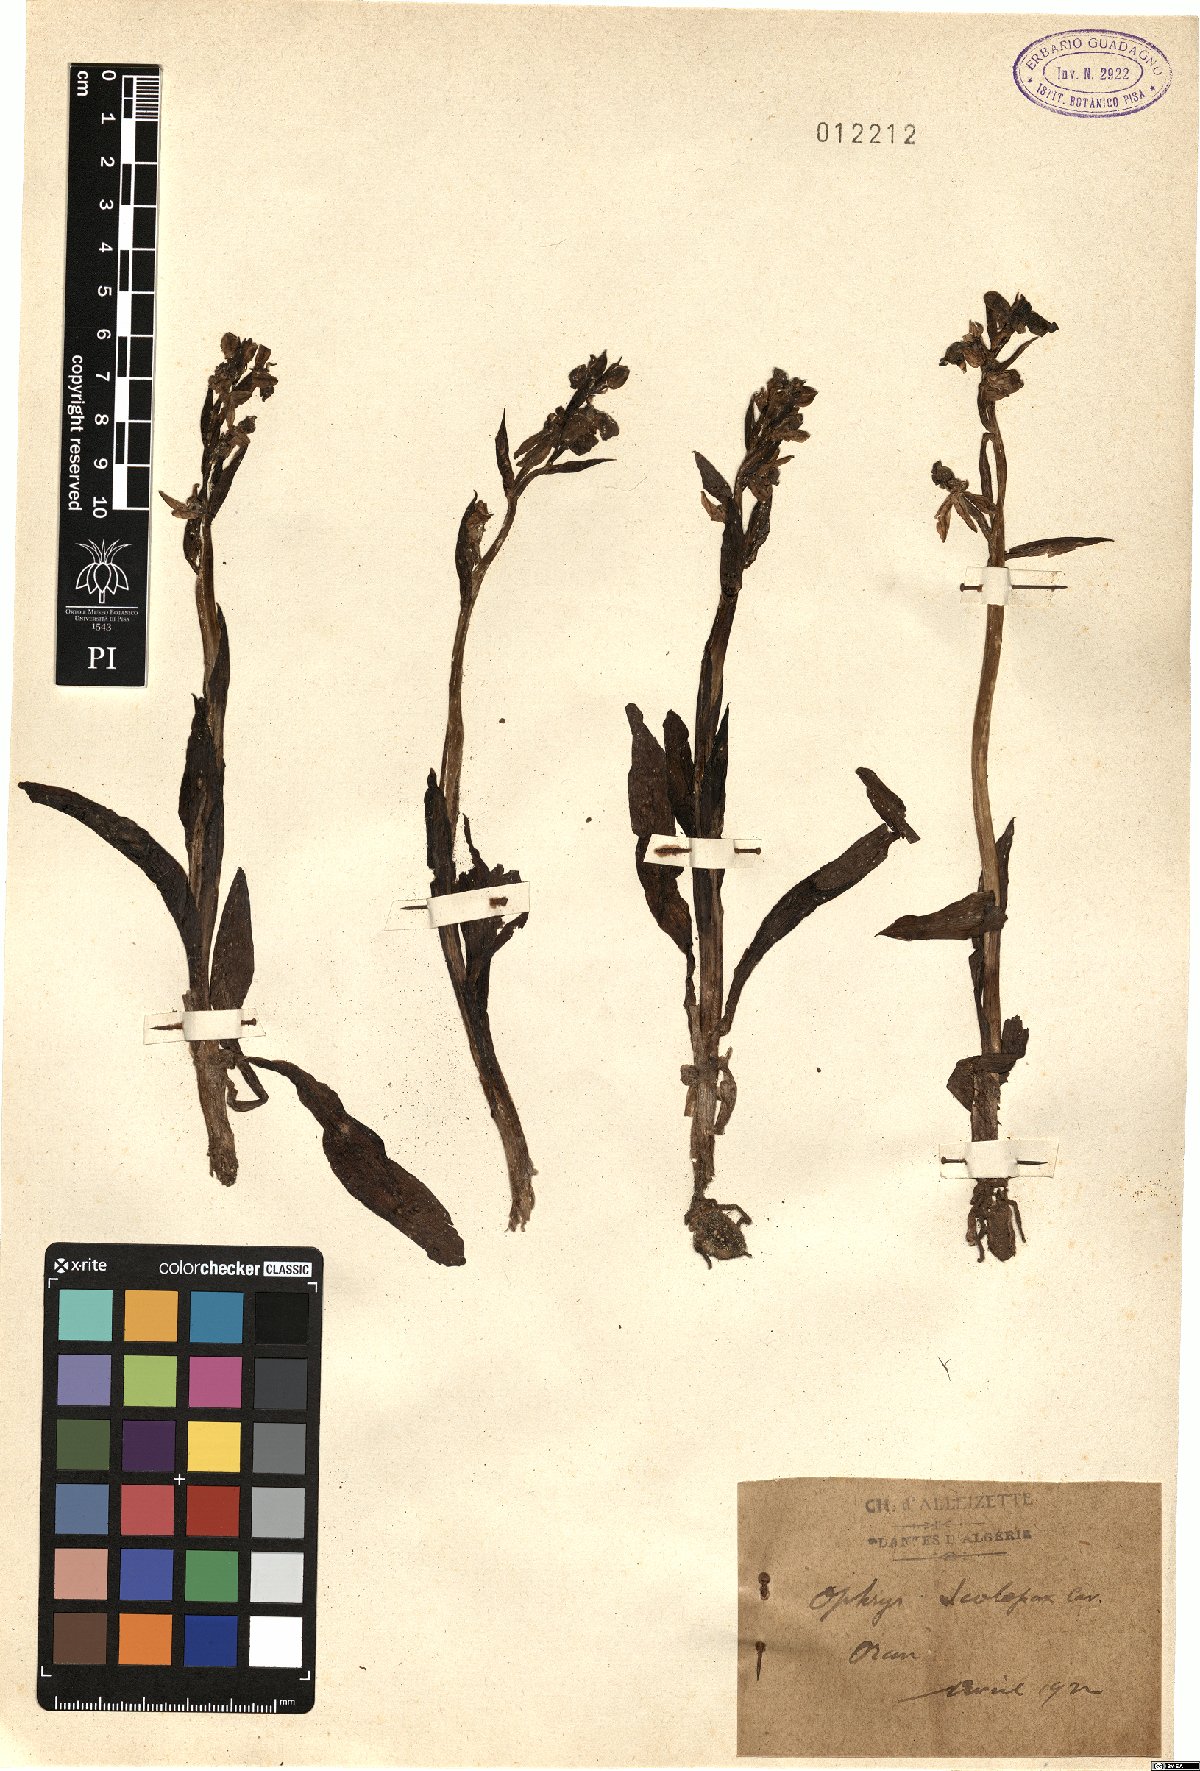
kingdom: Plantae
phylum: Tracheophyta
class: Liliopsida
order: Asparagales
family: Orchidaceae
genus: Ophrys
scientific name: Ophrys scolopax
